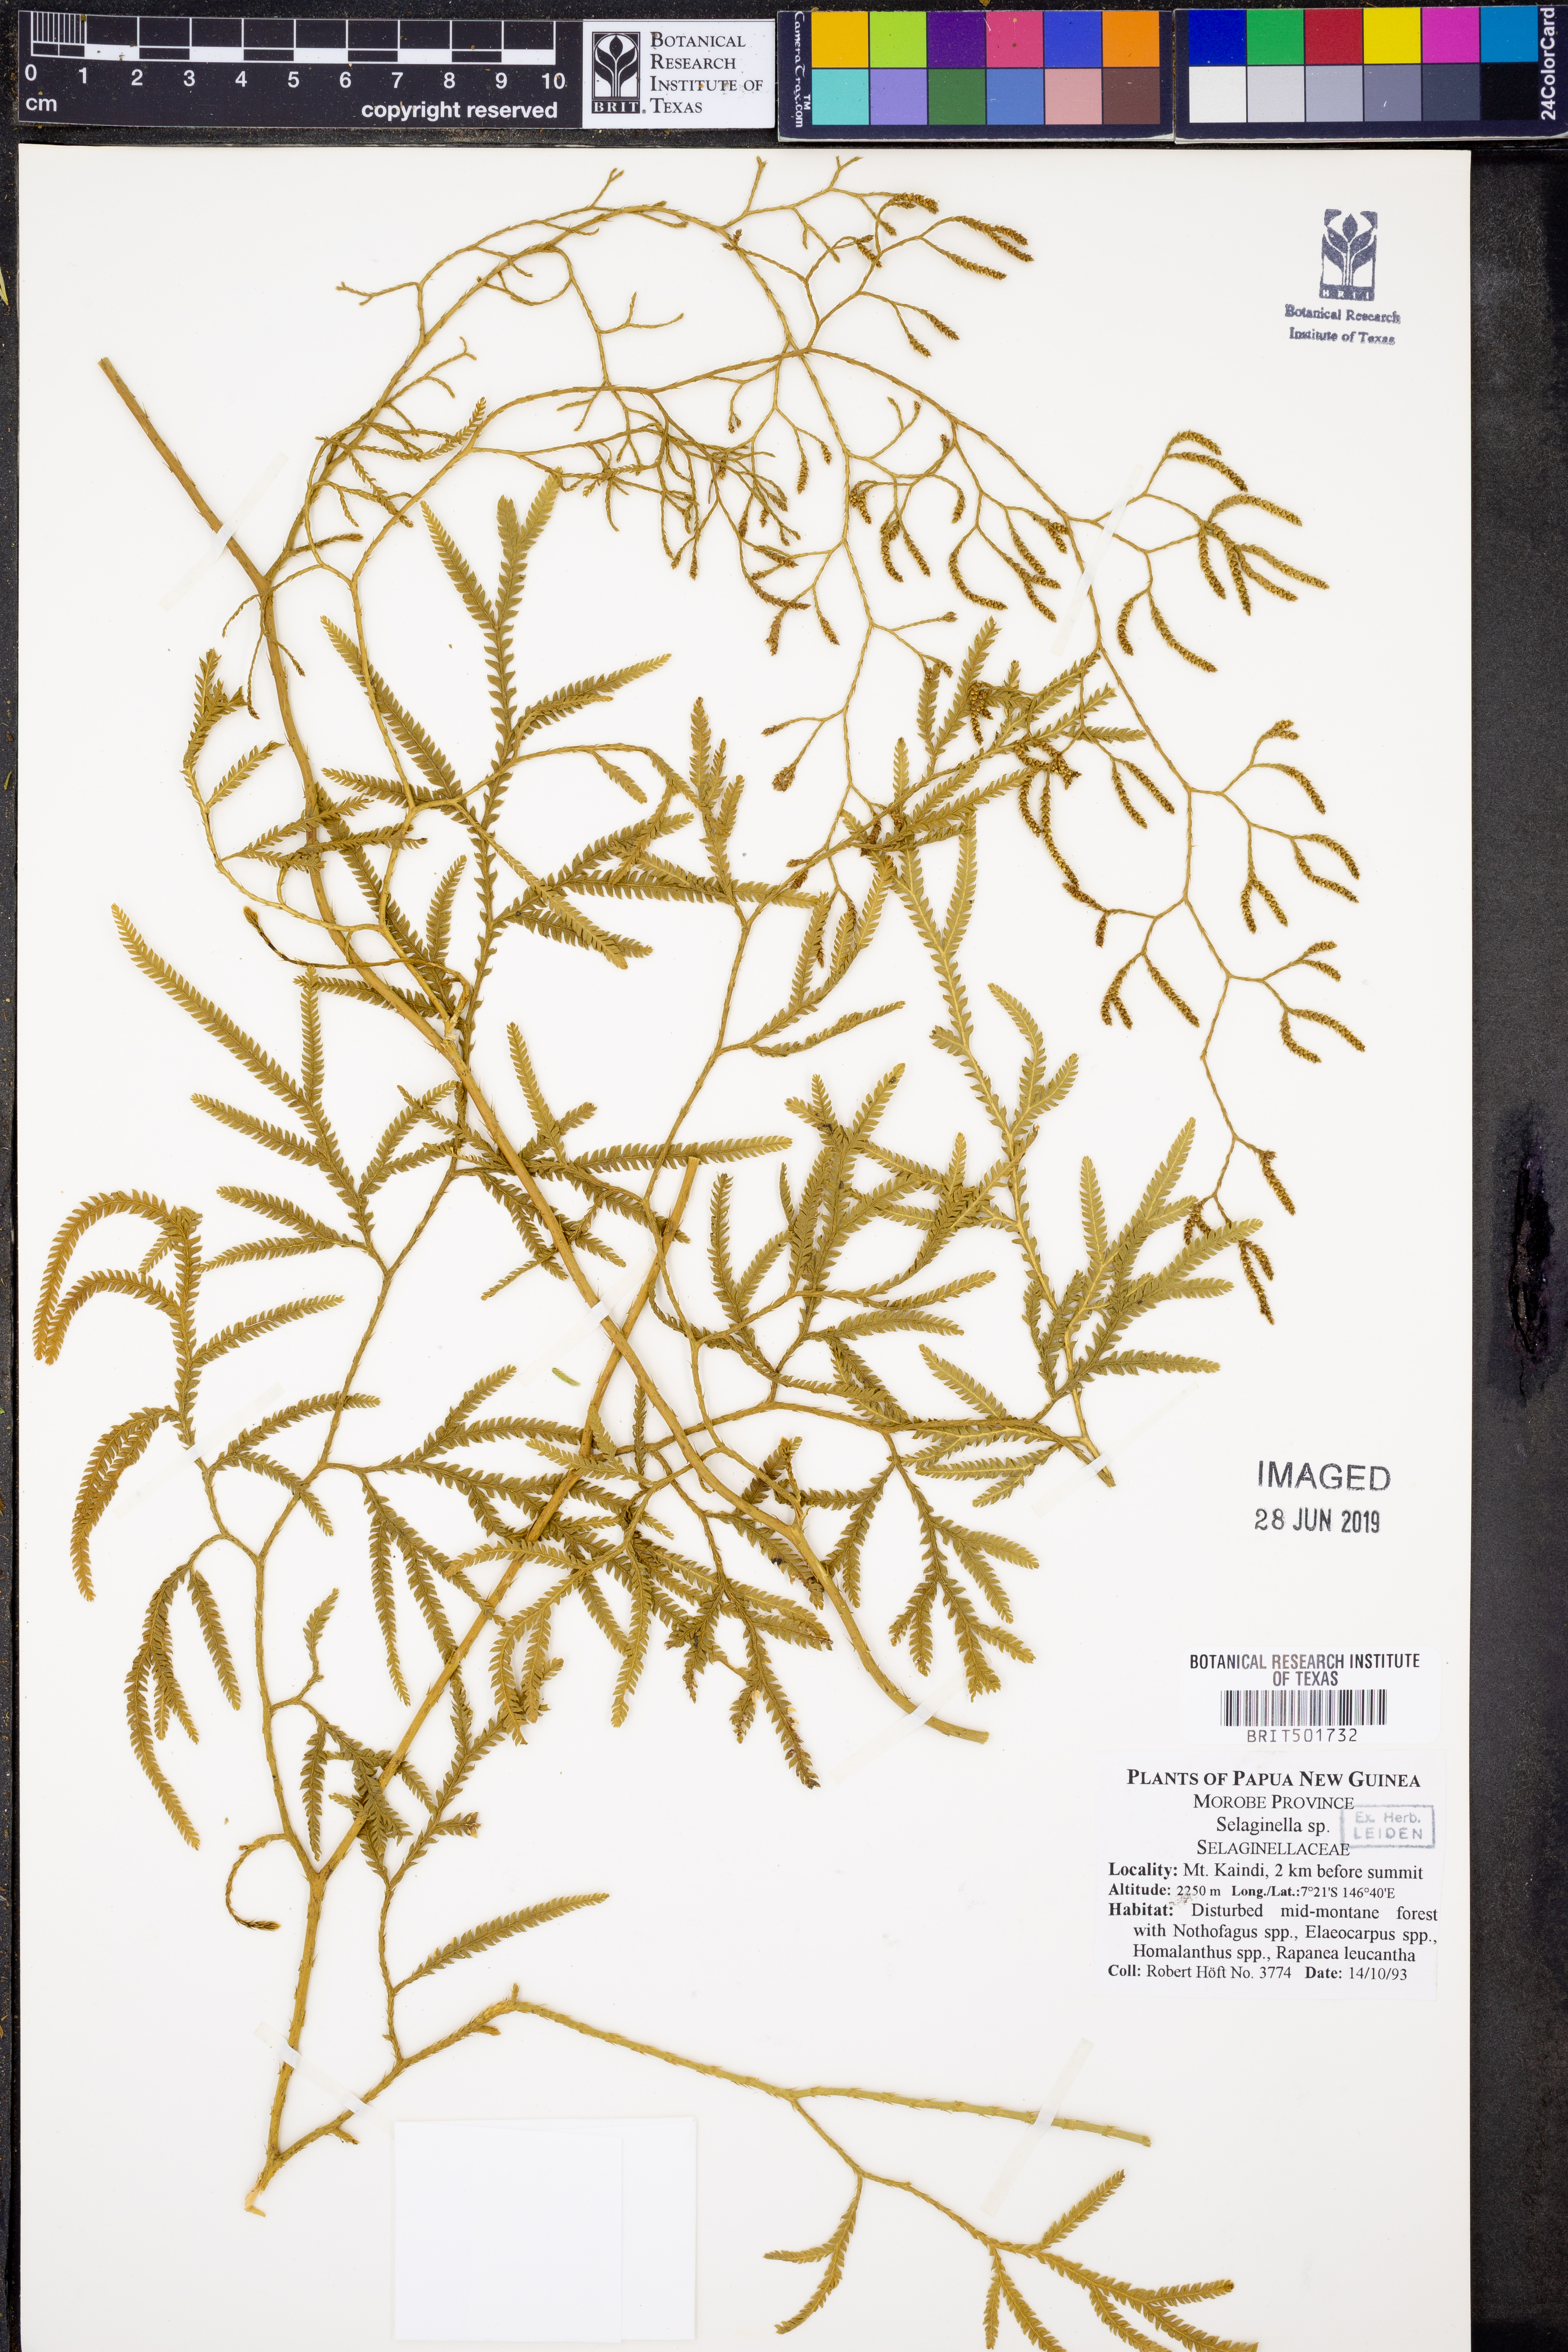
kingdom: Plantae
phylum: Tracheophyta
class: Lycopodiopsida
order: Selaginellales
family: Selaginellaceae
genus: Selaginella
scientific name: Selaginella
